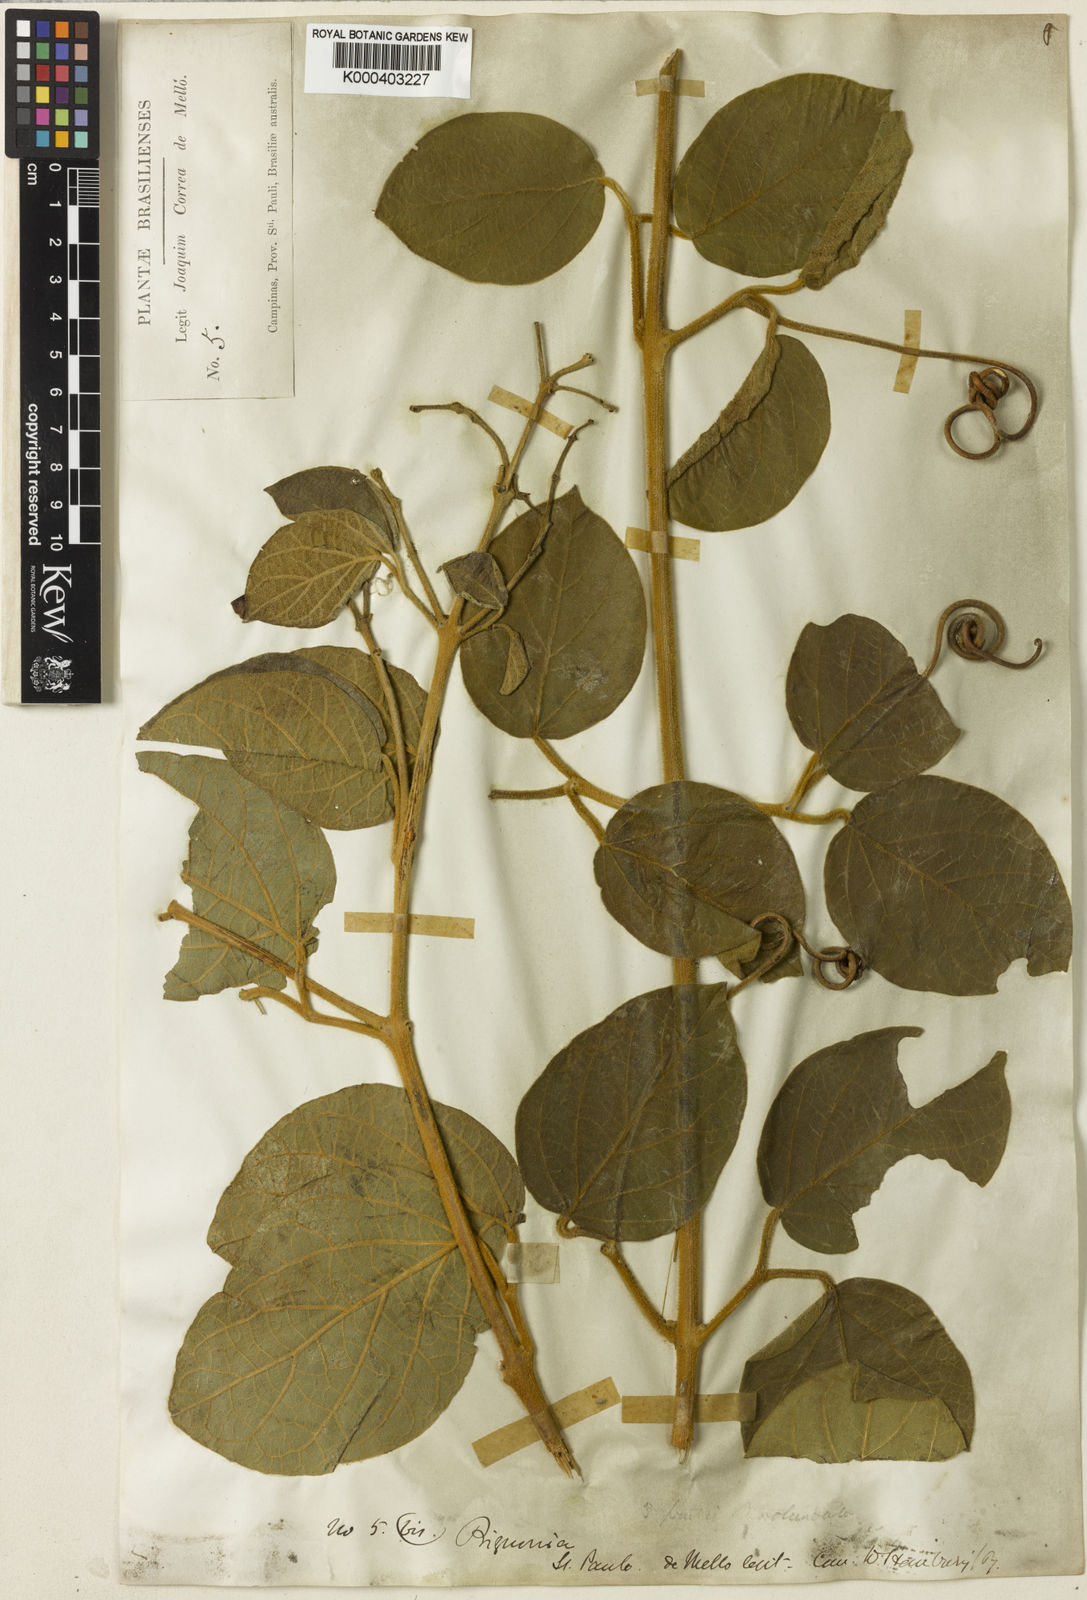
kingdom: Plantae
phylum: Tracheophyta
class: Magnoliopsida
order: Lamiales
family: Bignoniaceae
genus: Fridericia
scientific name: Fridericia formosa
